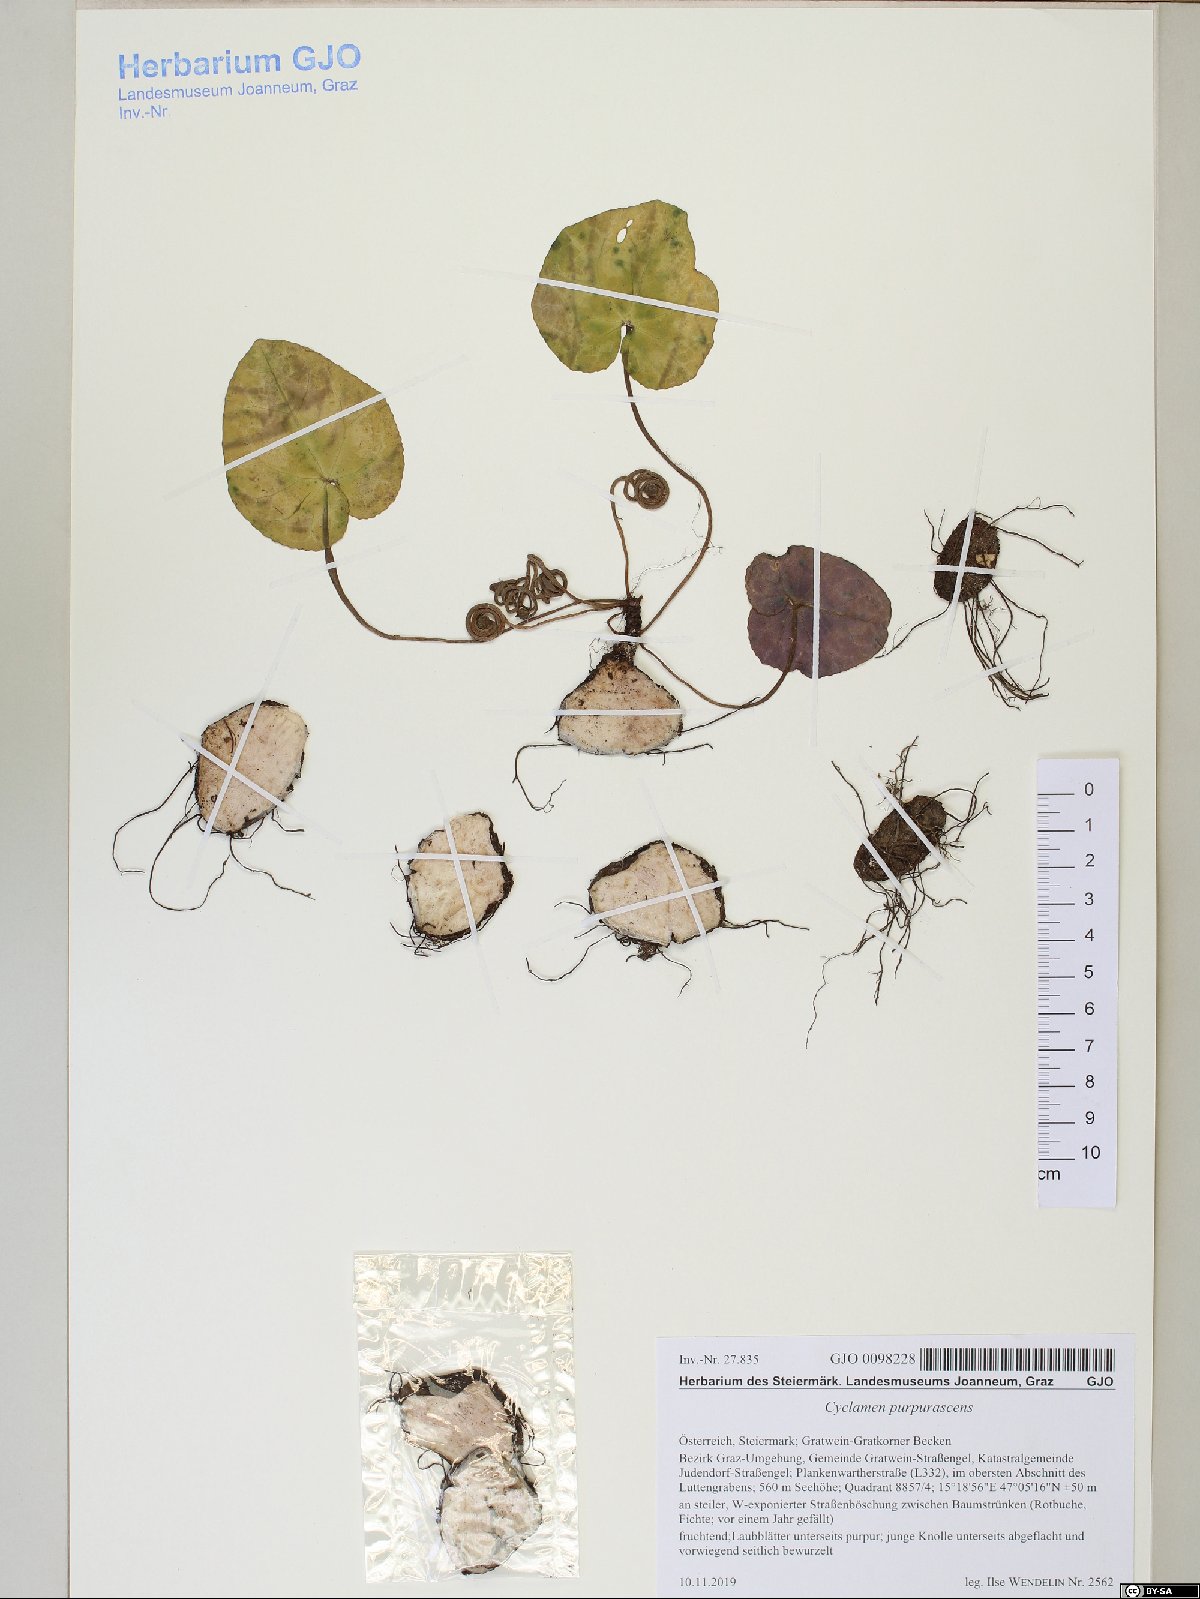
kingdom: Plantae
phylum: Tracheophyta
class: Magnoliopsida
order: Ericales
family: Primulaceae
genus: Cyclamen
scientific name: Cyclamen purpurascens
